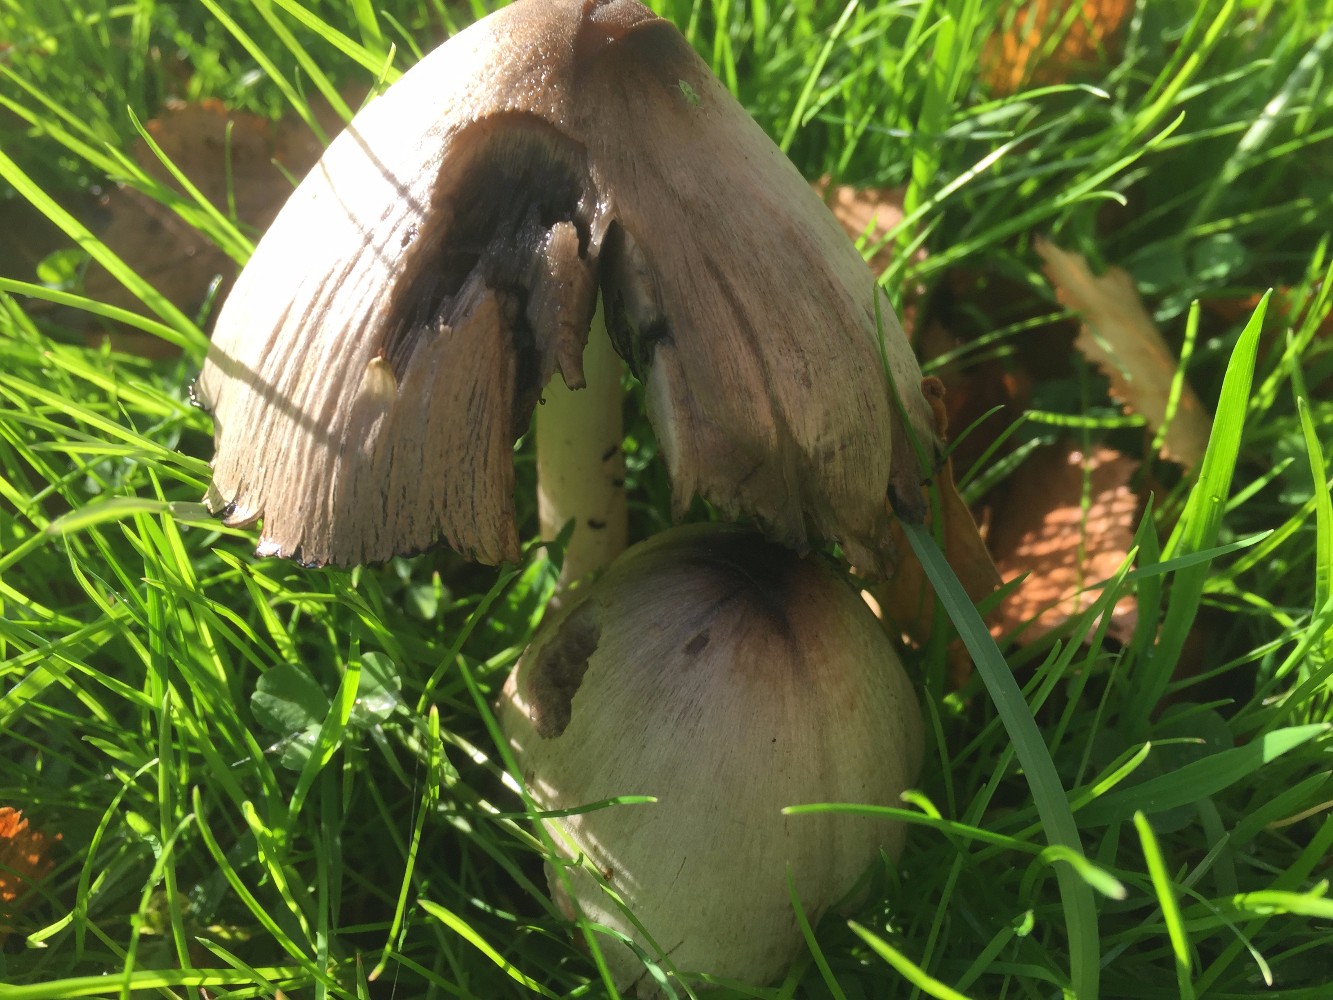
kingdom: Fungi
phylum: Basidiomycota
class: Agaricomycetes
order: Agaricales
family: Psathyrellaceae
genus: Coprinopsis
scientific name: Coprinopsis atramentaria
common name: almindelig blækhat
